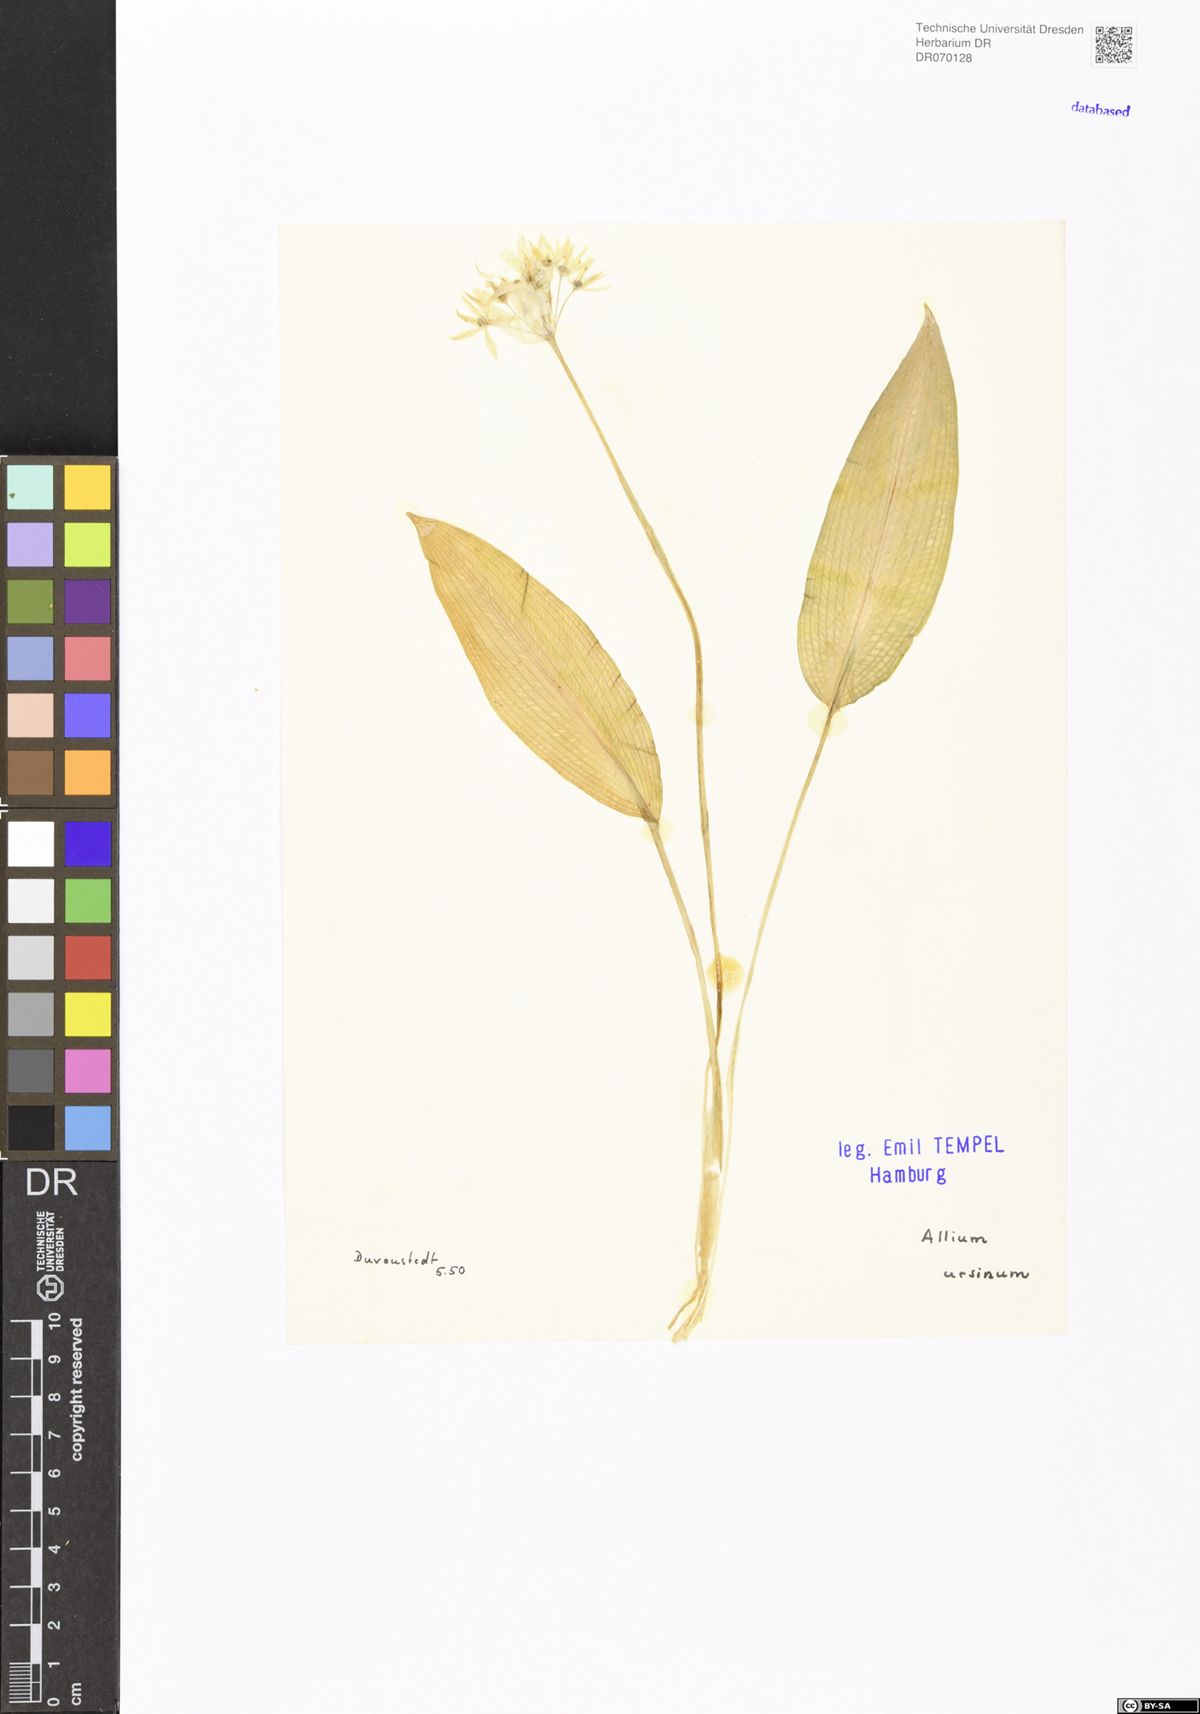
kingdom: Plantae
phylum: Tracheophyta
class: Liliopsida
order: Asparagales
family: Amaryllidaceae
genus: Allium
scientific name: Allium ursinum
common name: Ramsons
